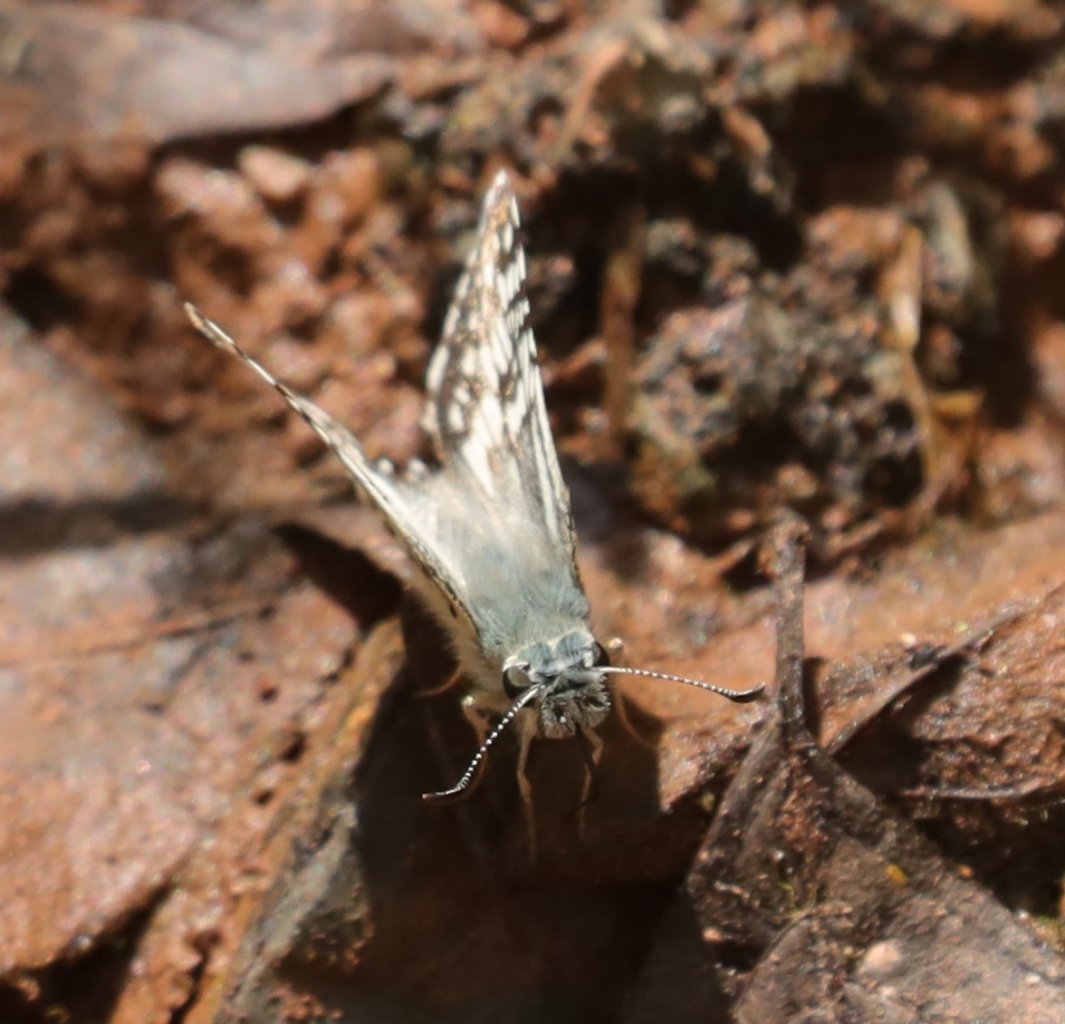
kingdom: Animalia
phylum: Arthropoda
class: Insecta
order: Lepidoptera
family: Hesperiidae
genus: Pyrgus
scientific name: Pyrgus communis
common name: Common Checkered-Skipper
